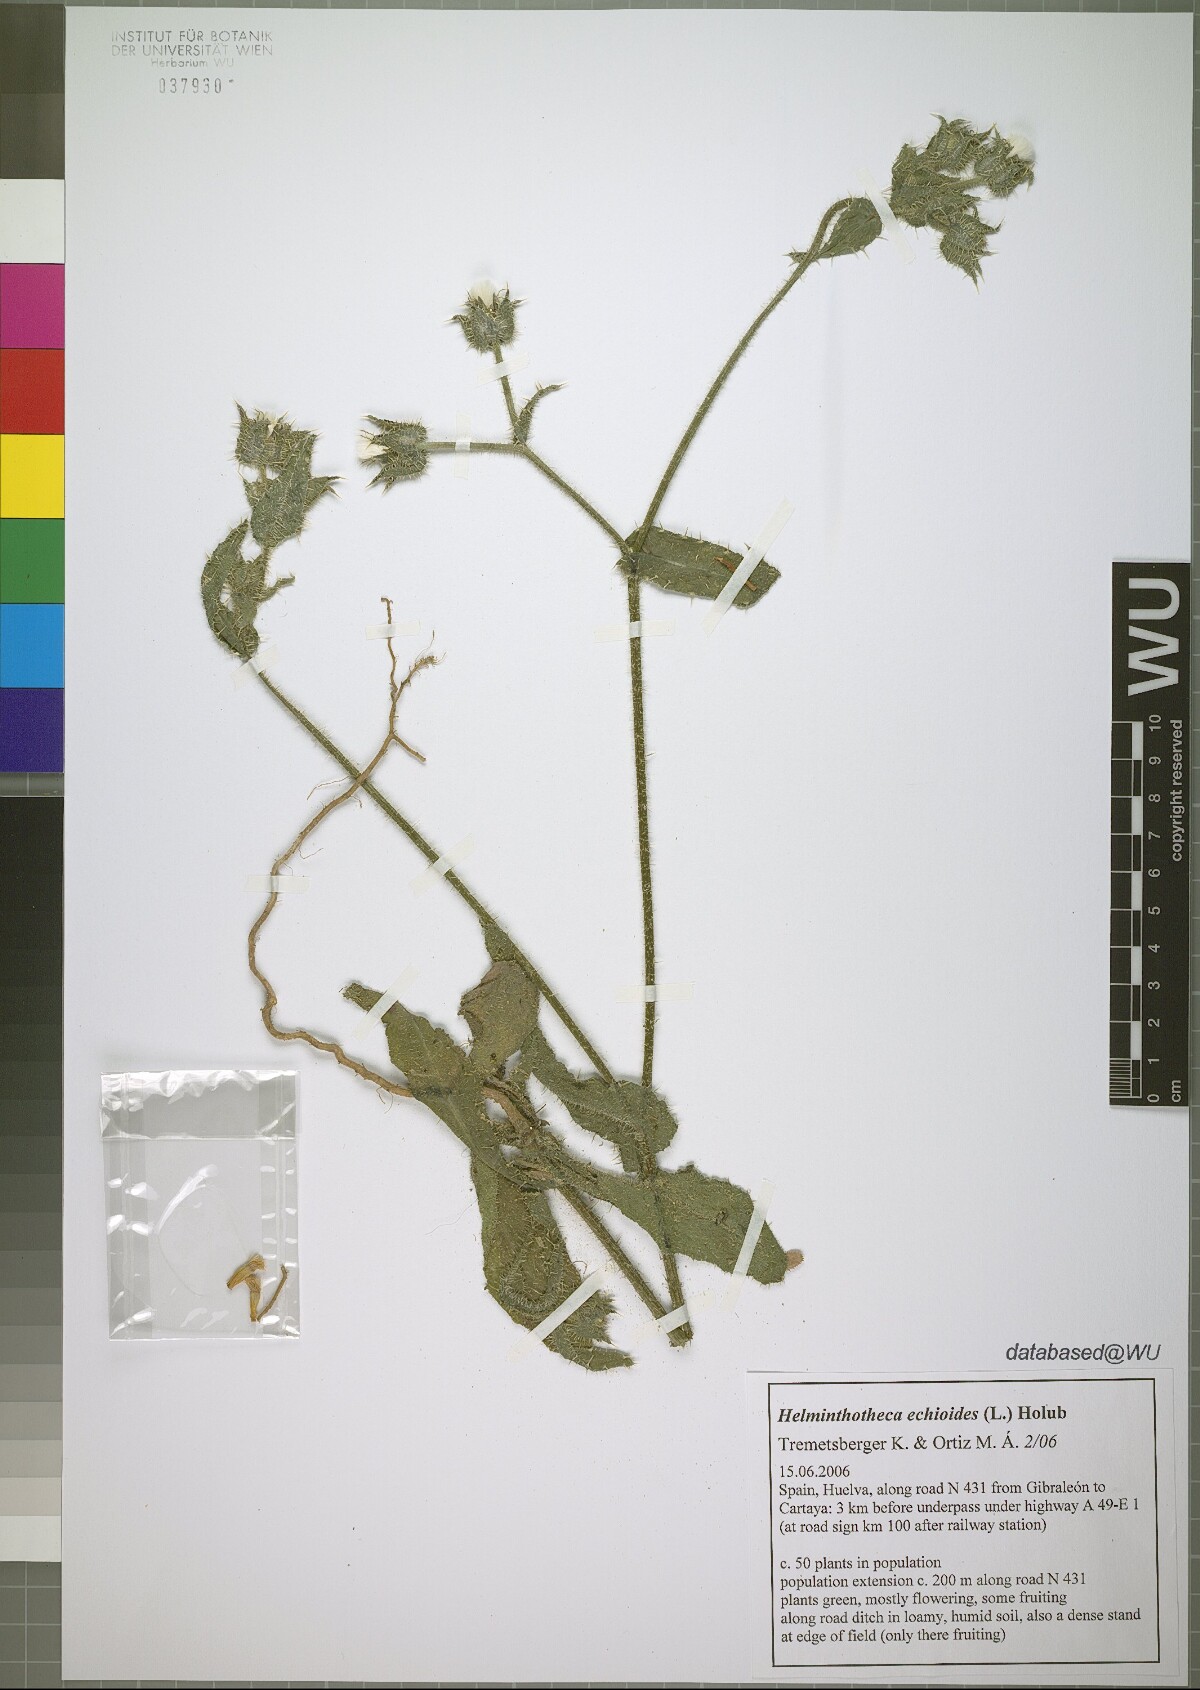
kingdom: Plantae
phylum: Tracheophyta
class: Magnoliopsida
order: Asterales
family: Asteraceae
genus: Helminthotheca
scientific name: Helminthotheca echioides
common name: Ox-tongue
